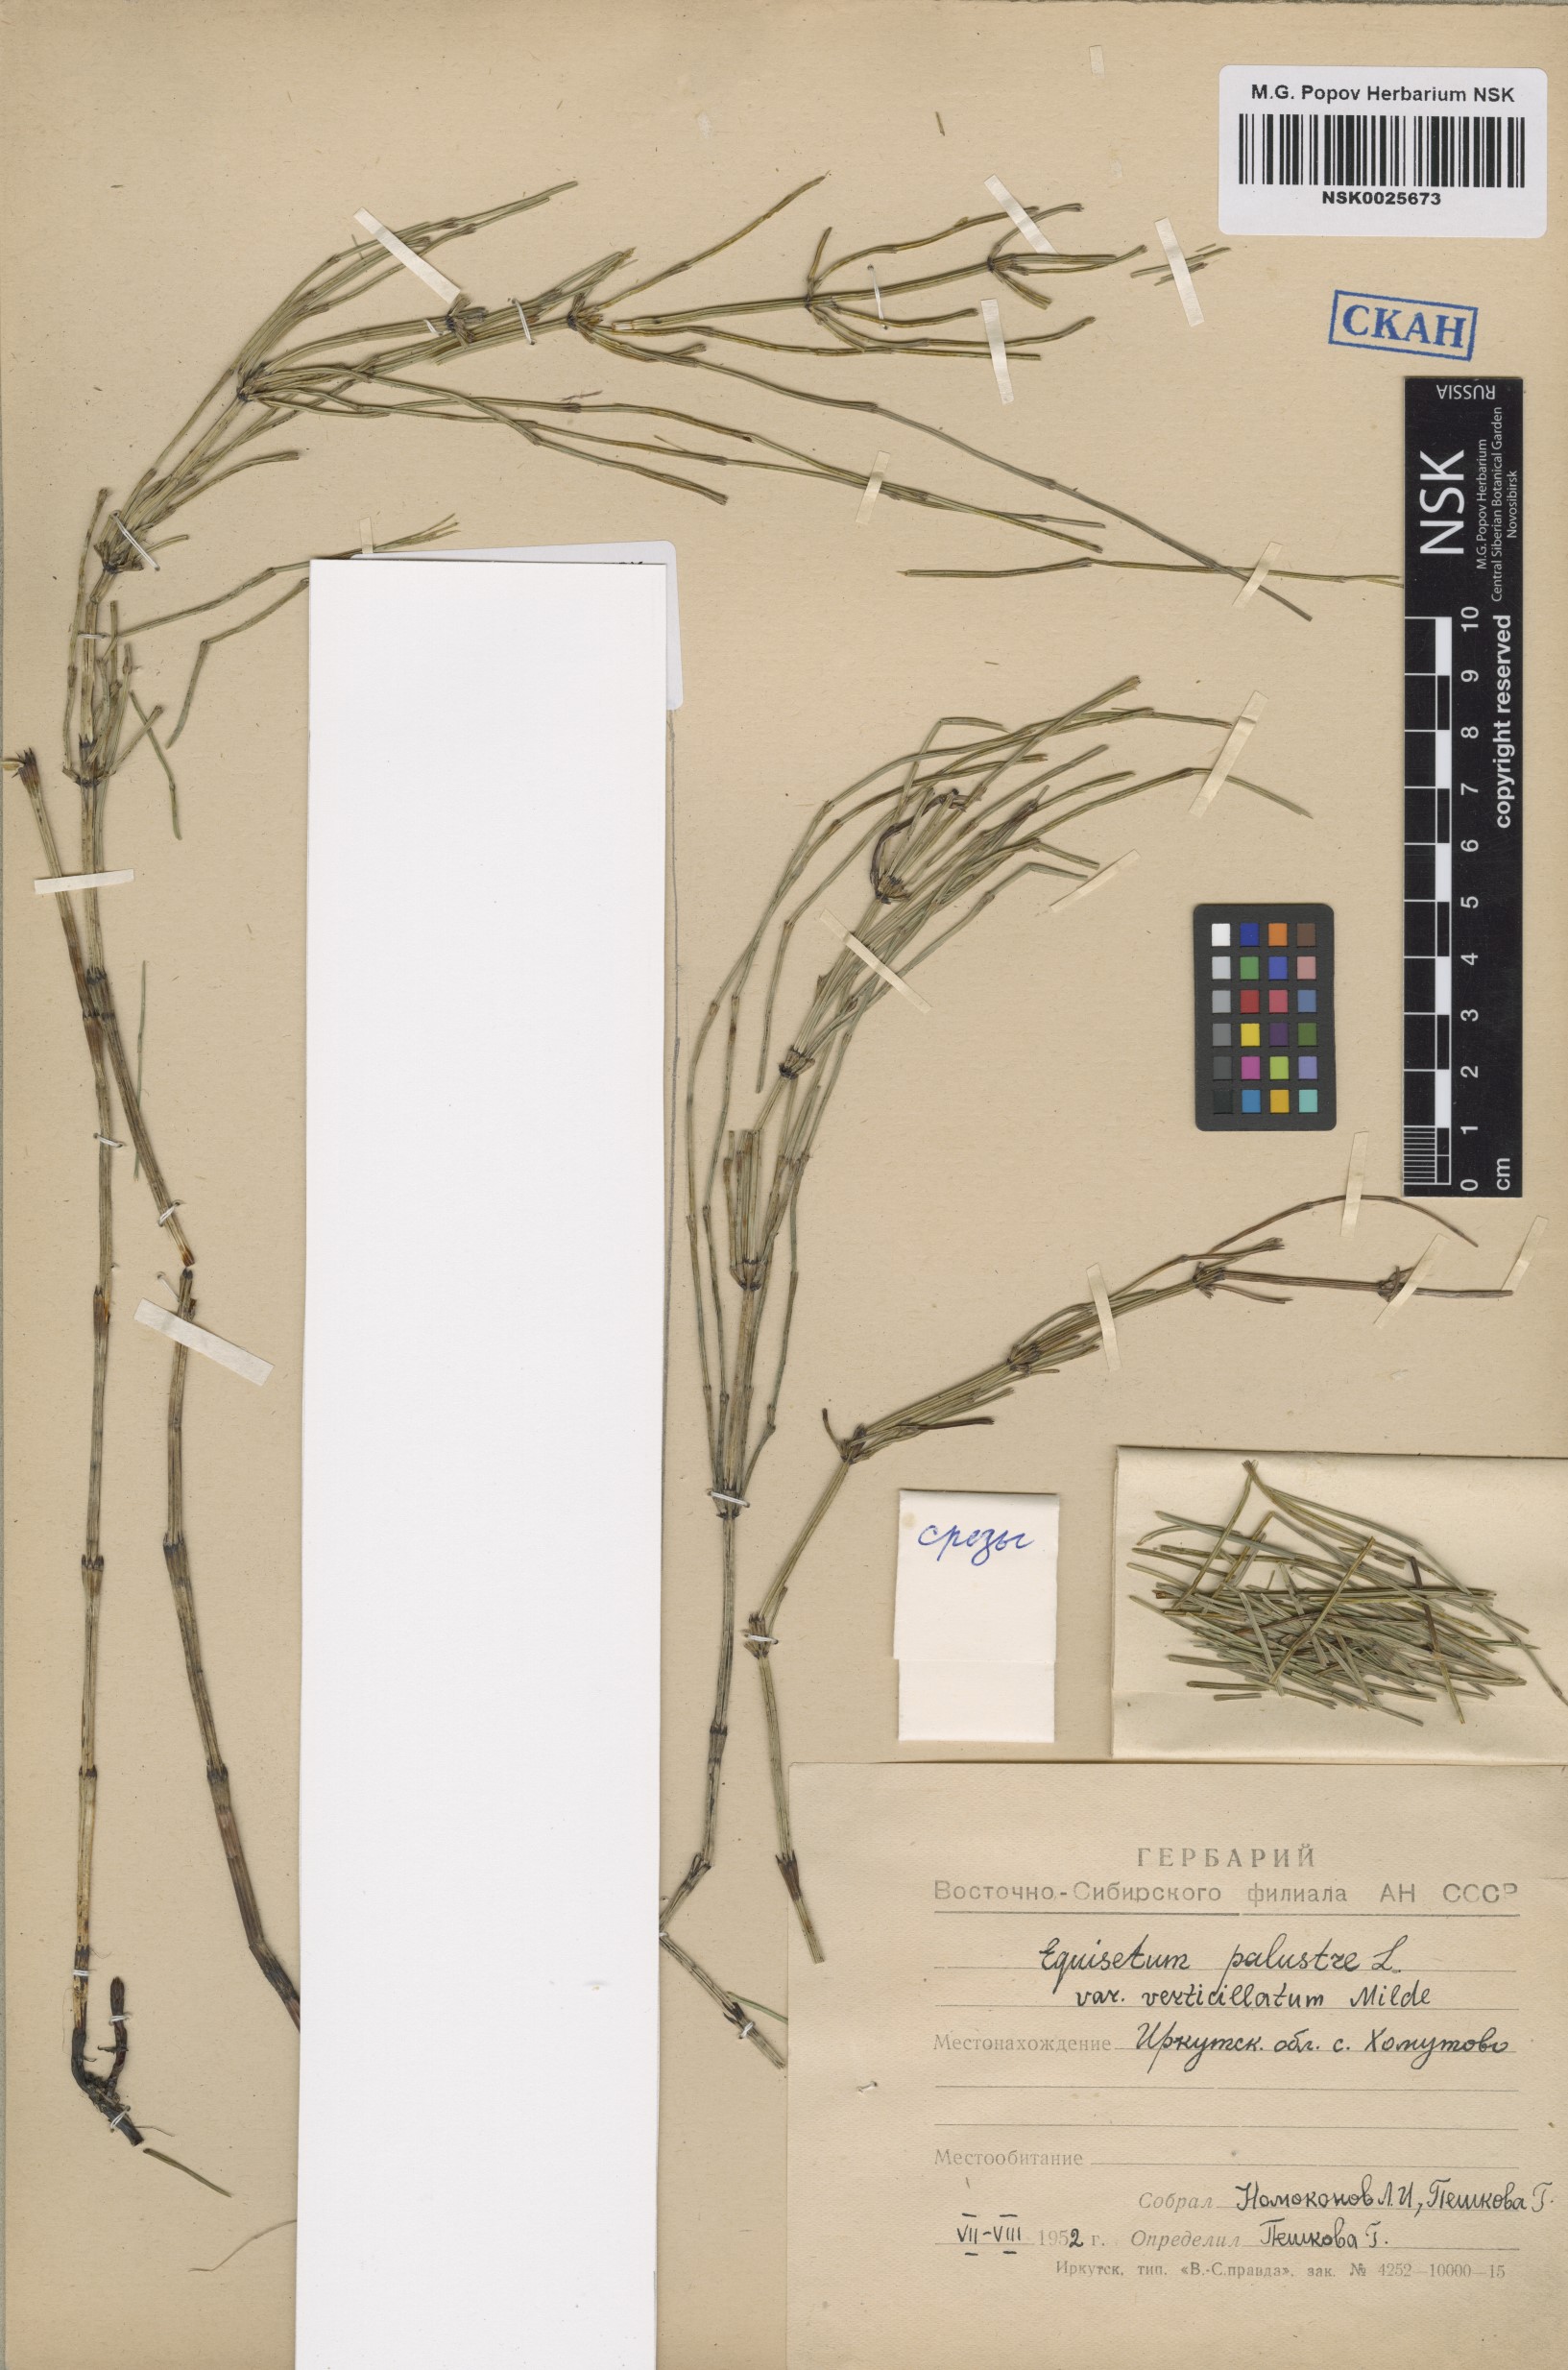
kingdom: Plantae
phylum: Tracheophyta
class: Polypodiopsida
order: Equisetales
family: Equisetaceae
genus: Equisetum
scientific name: Equisetum palustre
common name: Marsh horsetail
